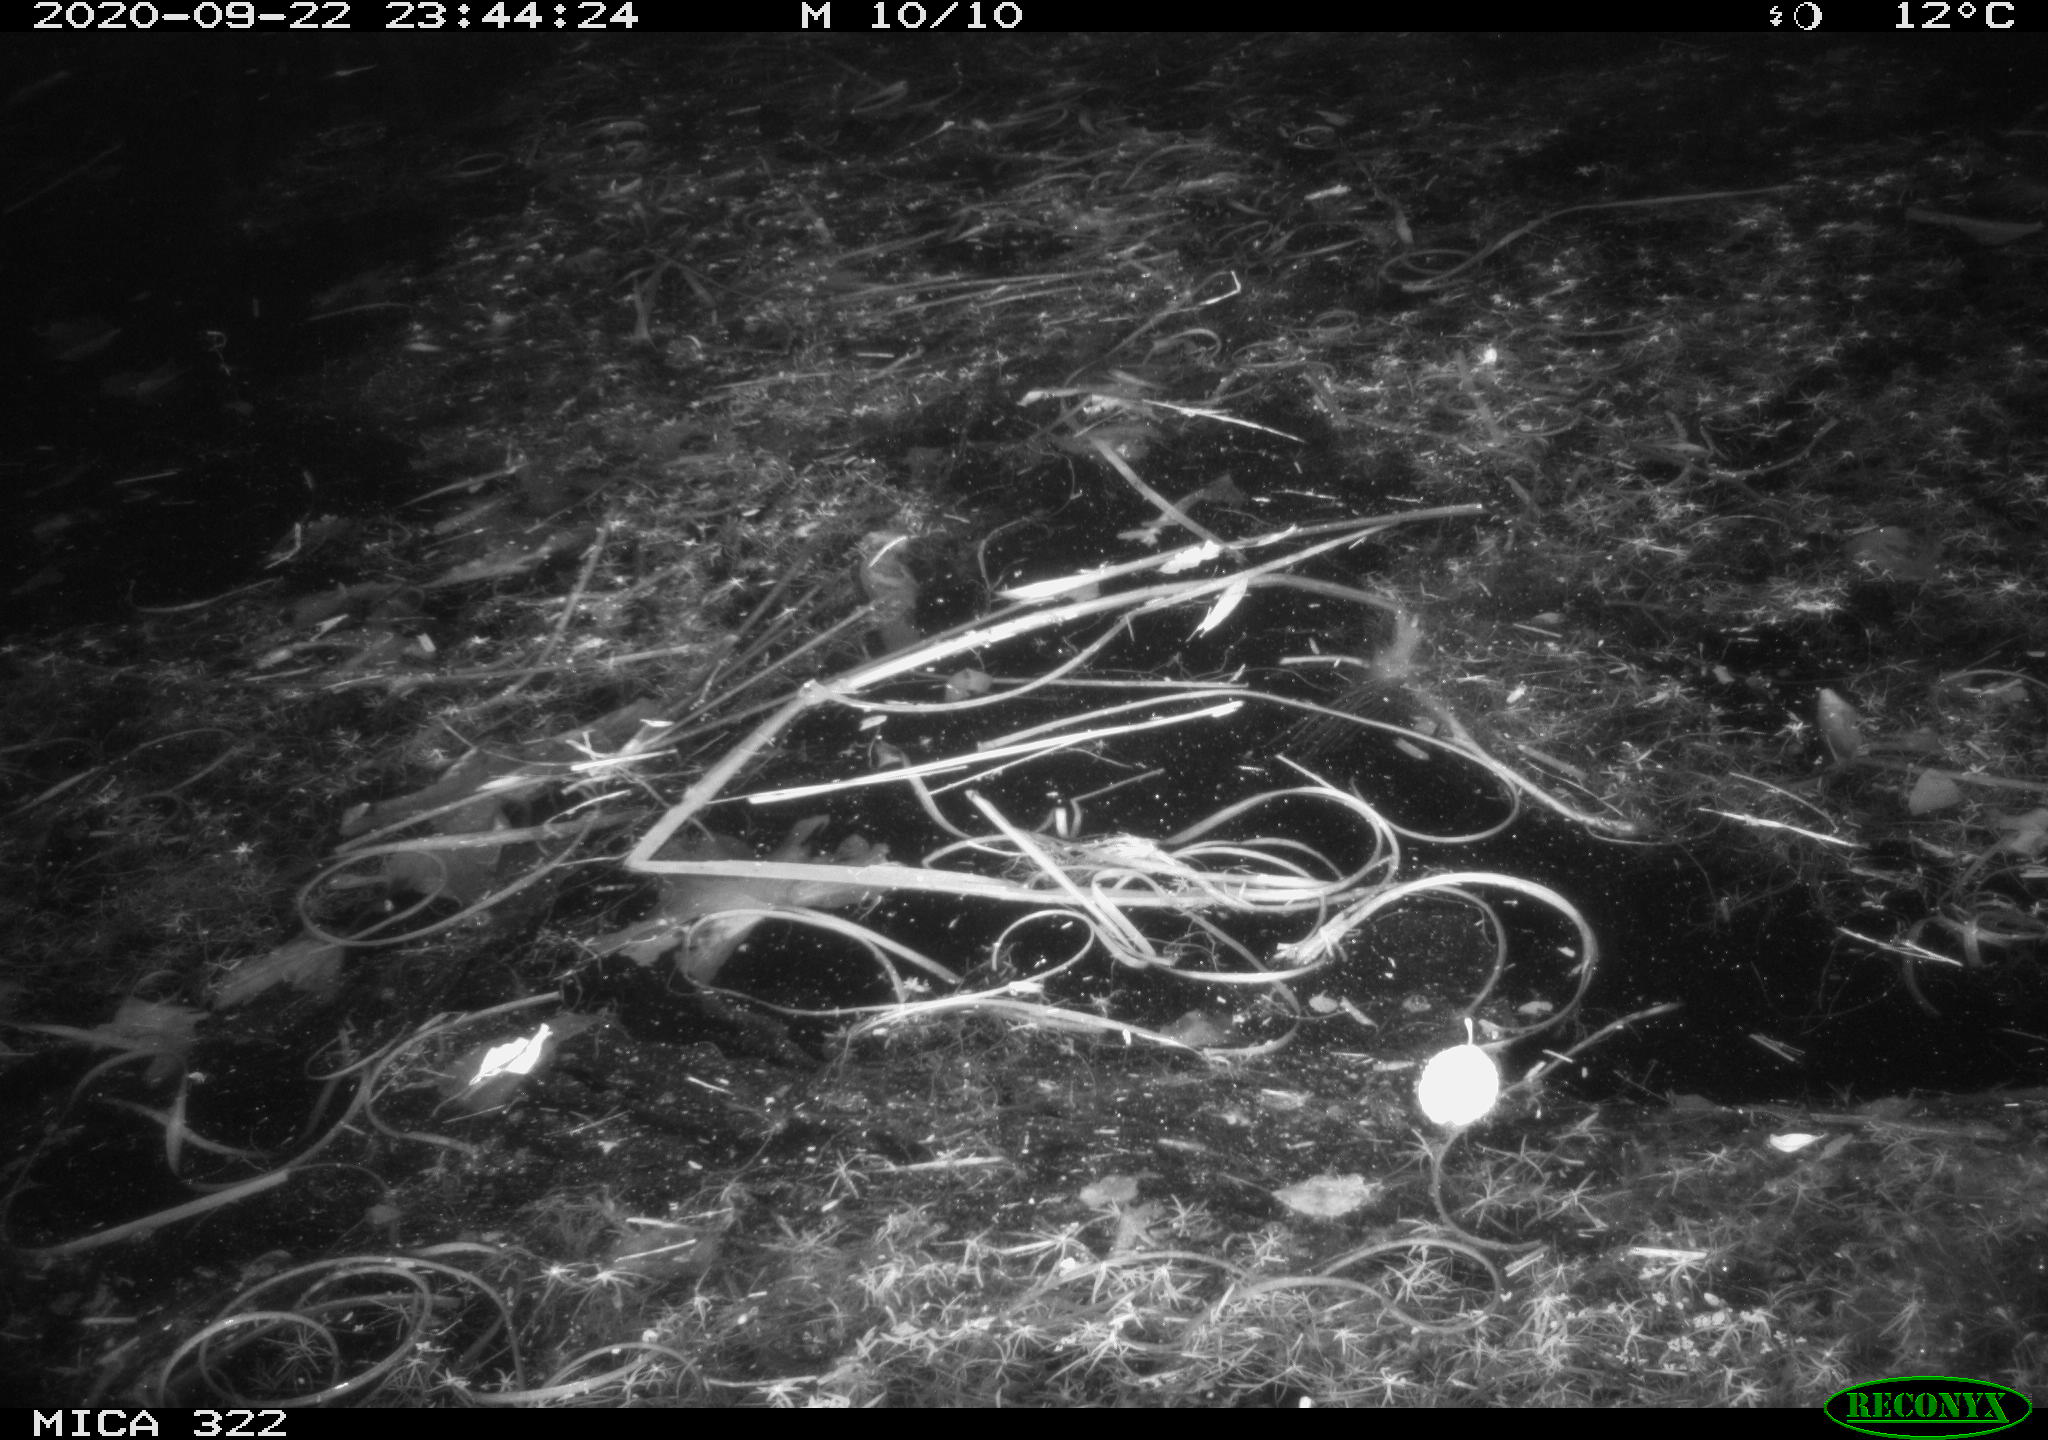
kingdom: Animalia
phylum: Chordata
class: Mammalia
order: Rodentia
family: Muridae
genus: Rattus
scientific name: Rattus norvegicus
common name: Brown rat
